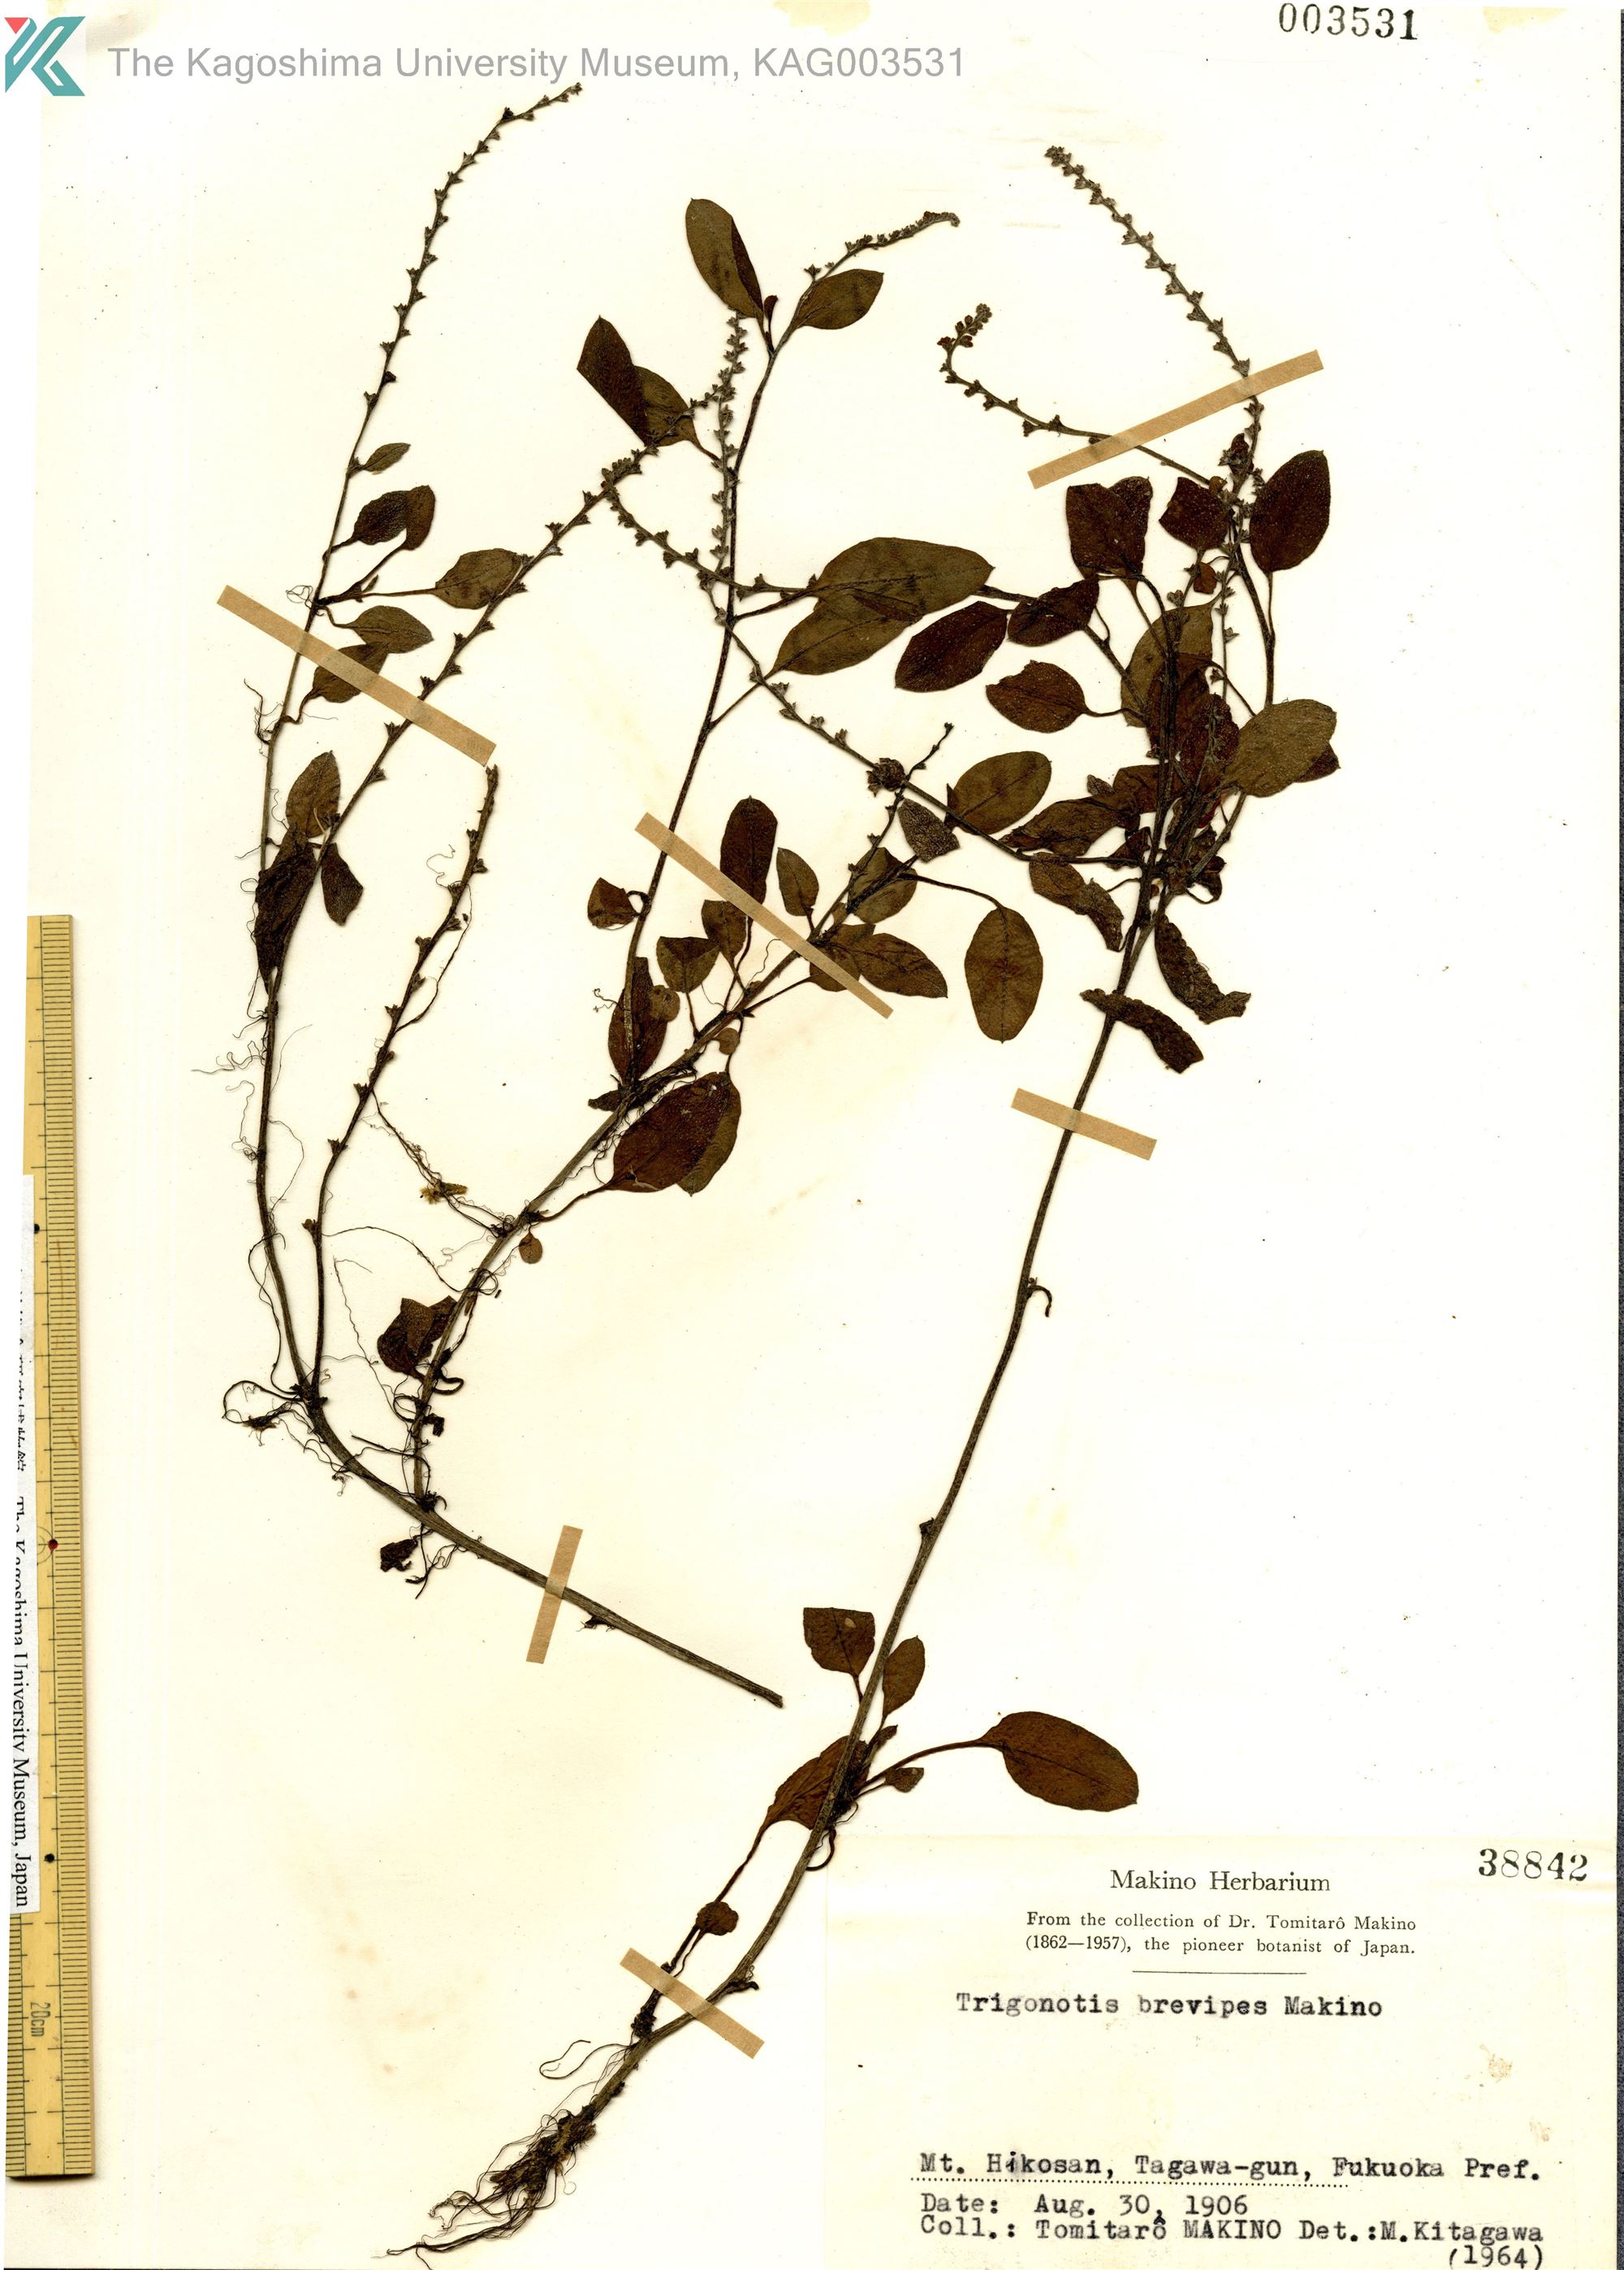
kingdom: Plantae
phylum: Tracheophyta
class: Magnoliopsida
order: Boraginales
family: Boraginaceae
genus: Trigonotis
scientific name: Trigonotis brevipes
